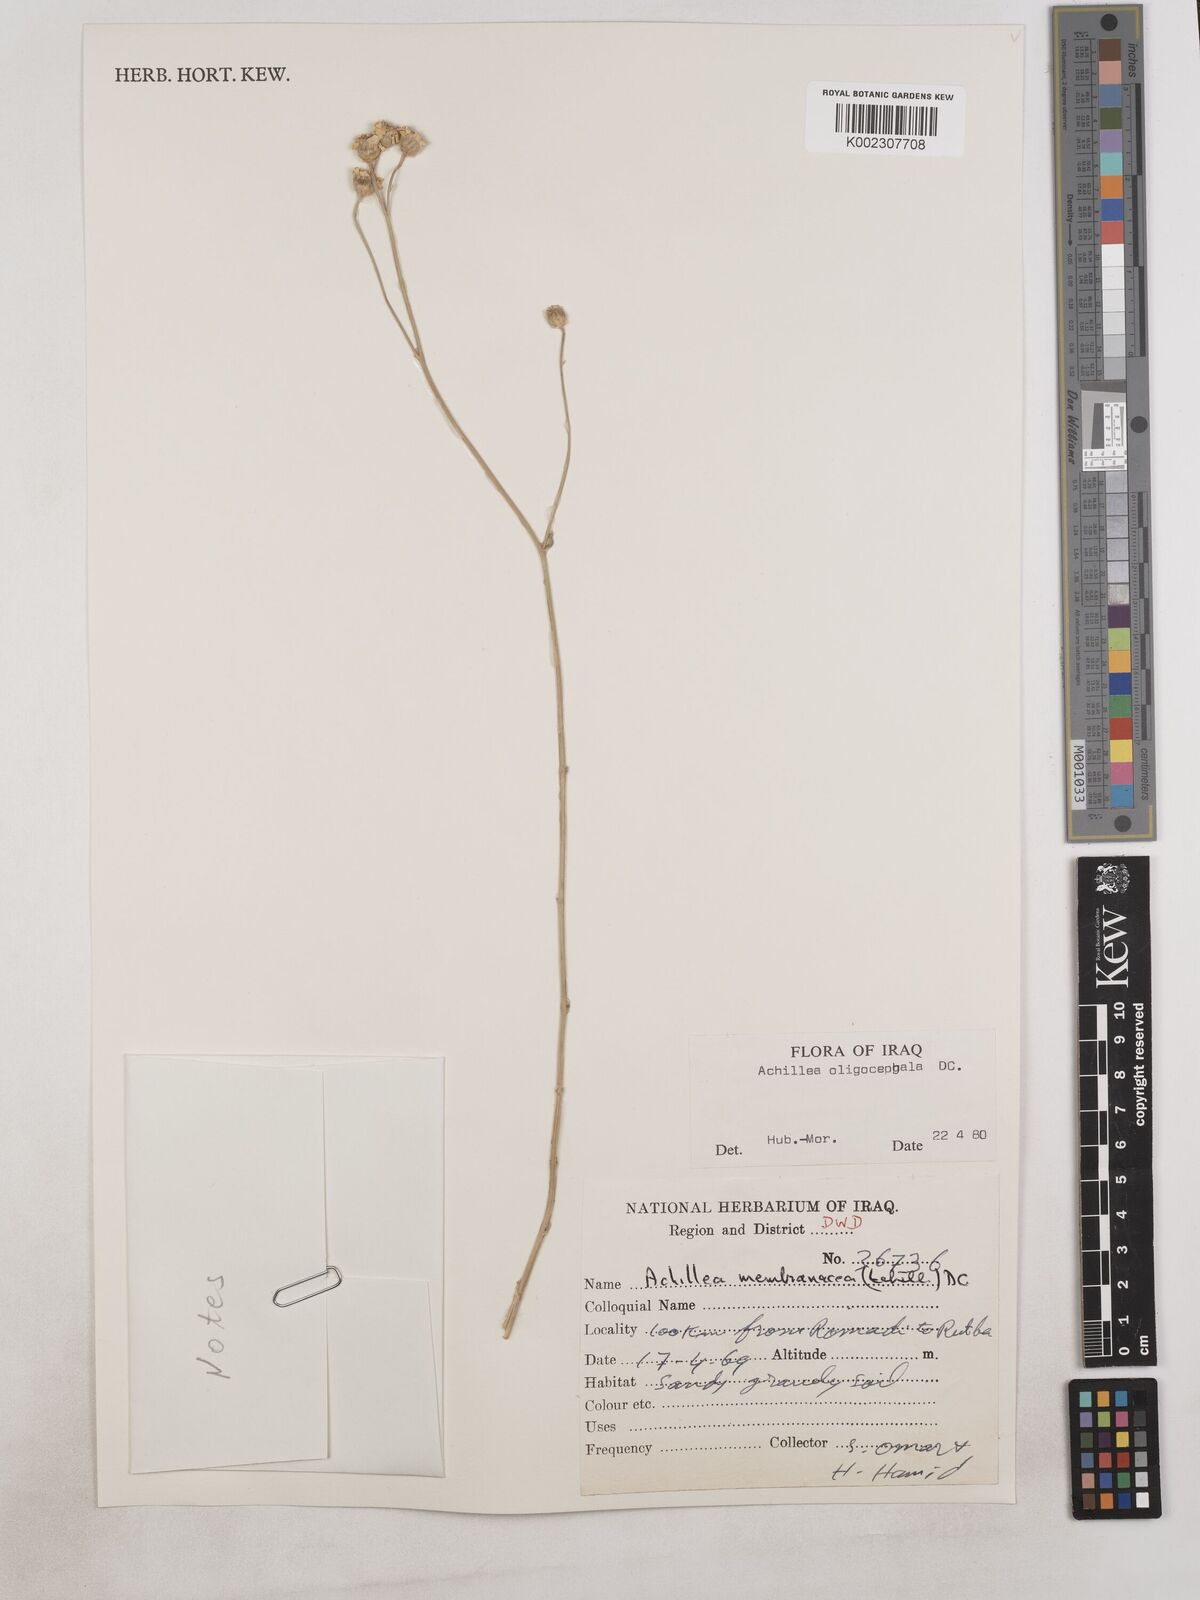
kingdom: Plantae
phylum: Tracheophyta
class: Magnoliopsida
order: Asterales
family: Asteraceae
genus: Achillea
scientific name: Achillea oligocephala
